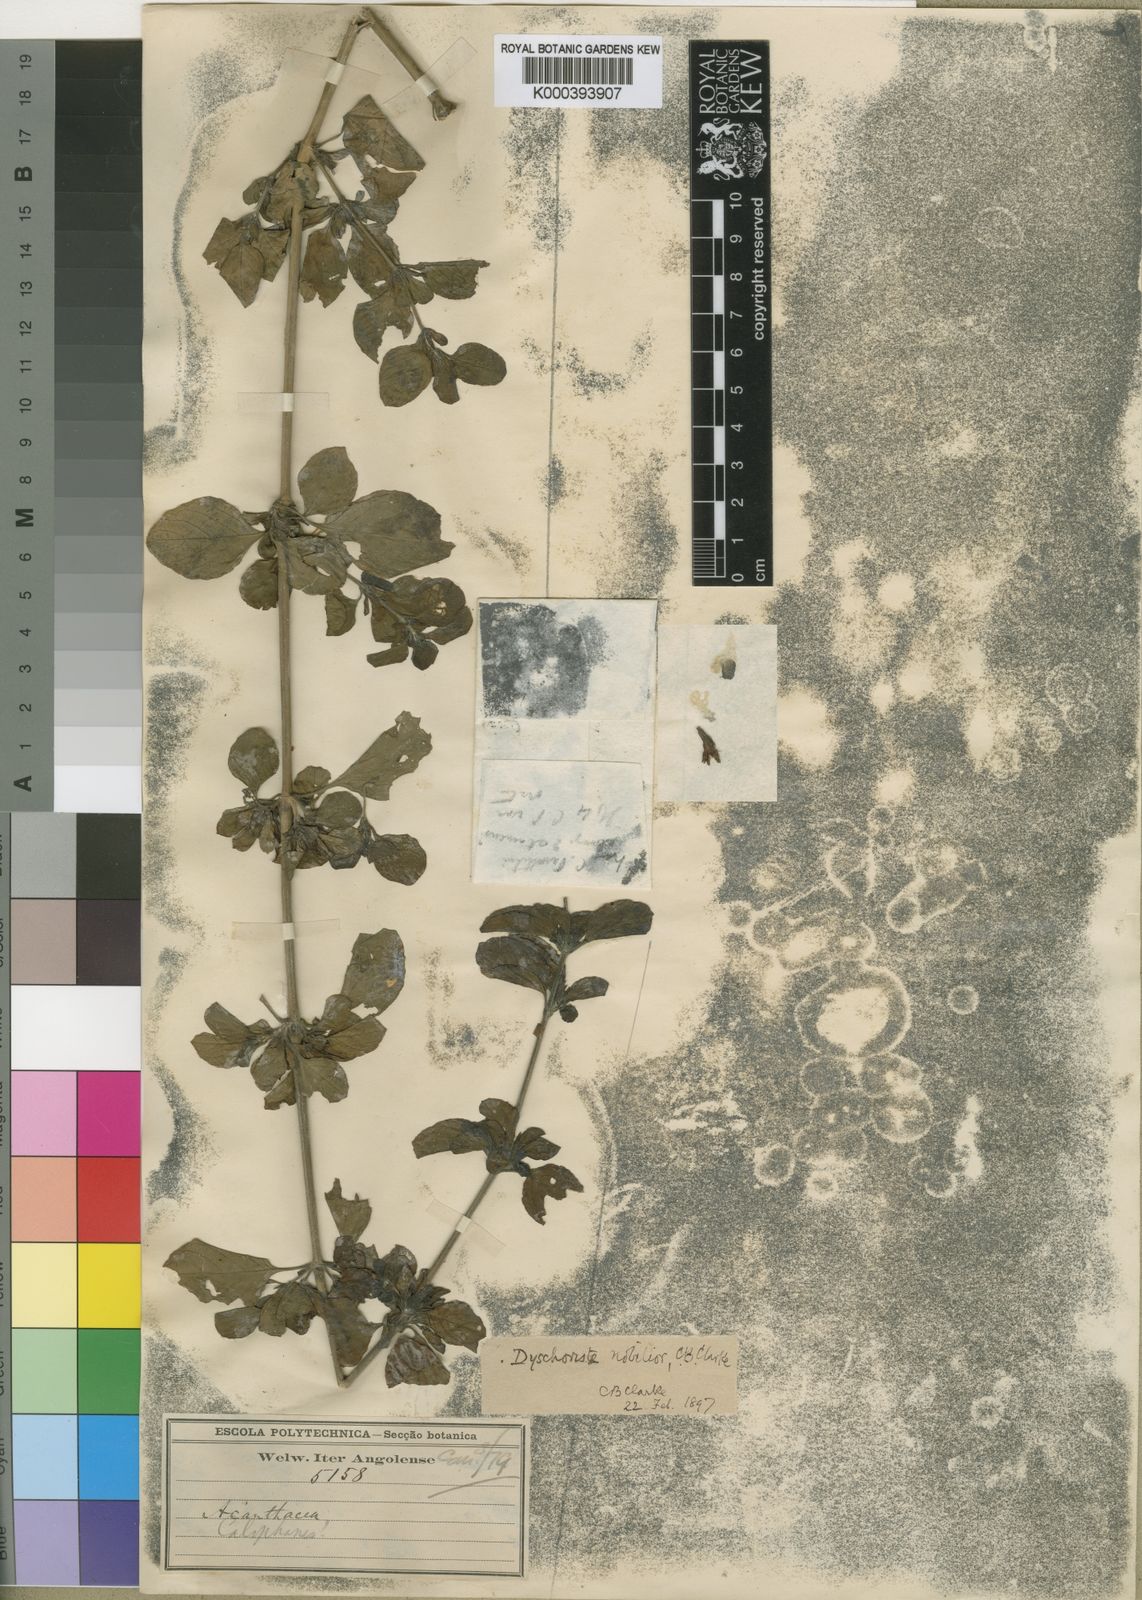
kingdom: Plantae
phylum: Tracheophyta
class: Magnoliopsida
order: Lamiales
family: Acanthaceae
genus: Dyschoriste
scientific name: Dyschoriste hildebrandtii
